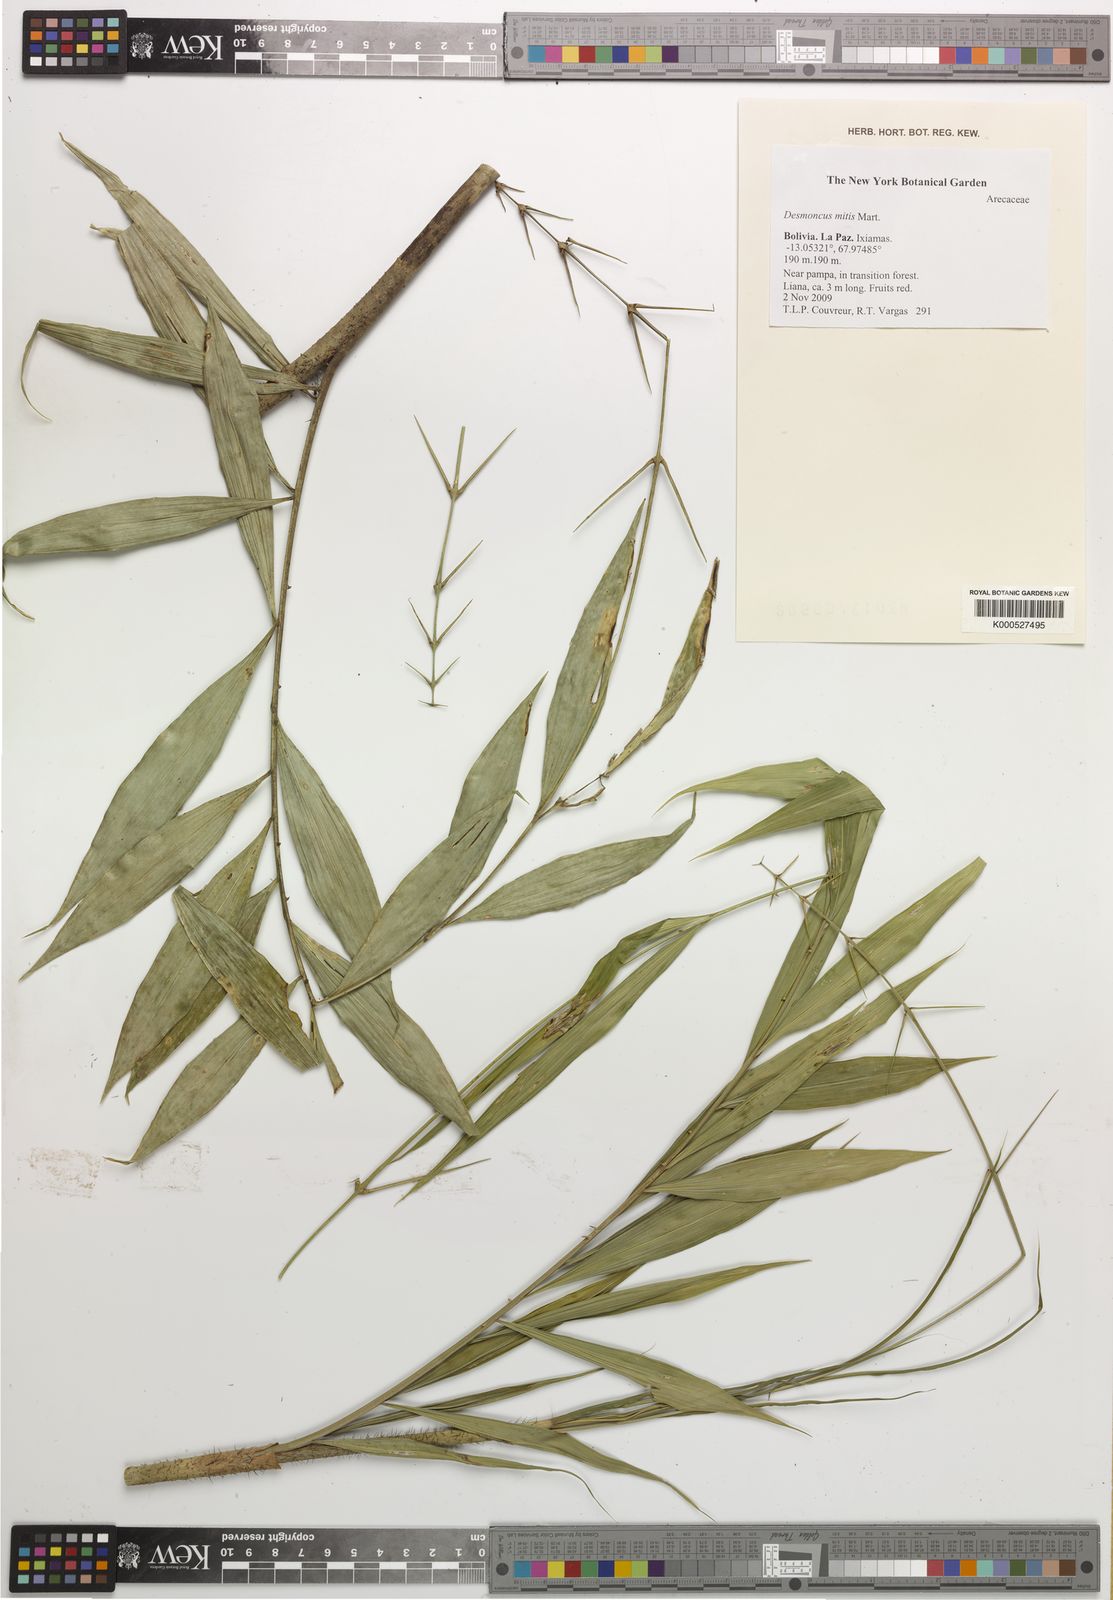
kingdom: Plantae
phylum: Tracheophyta
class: Liliopsida
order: Arecales
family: Arecaceae
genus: Desmoncus
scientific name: Desmoncus mitis
